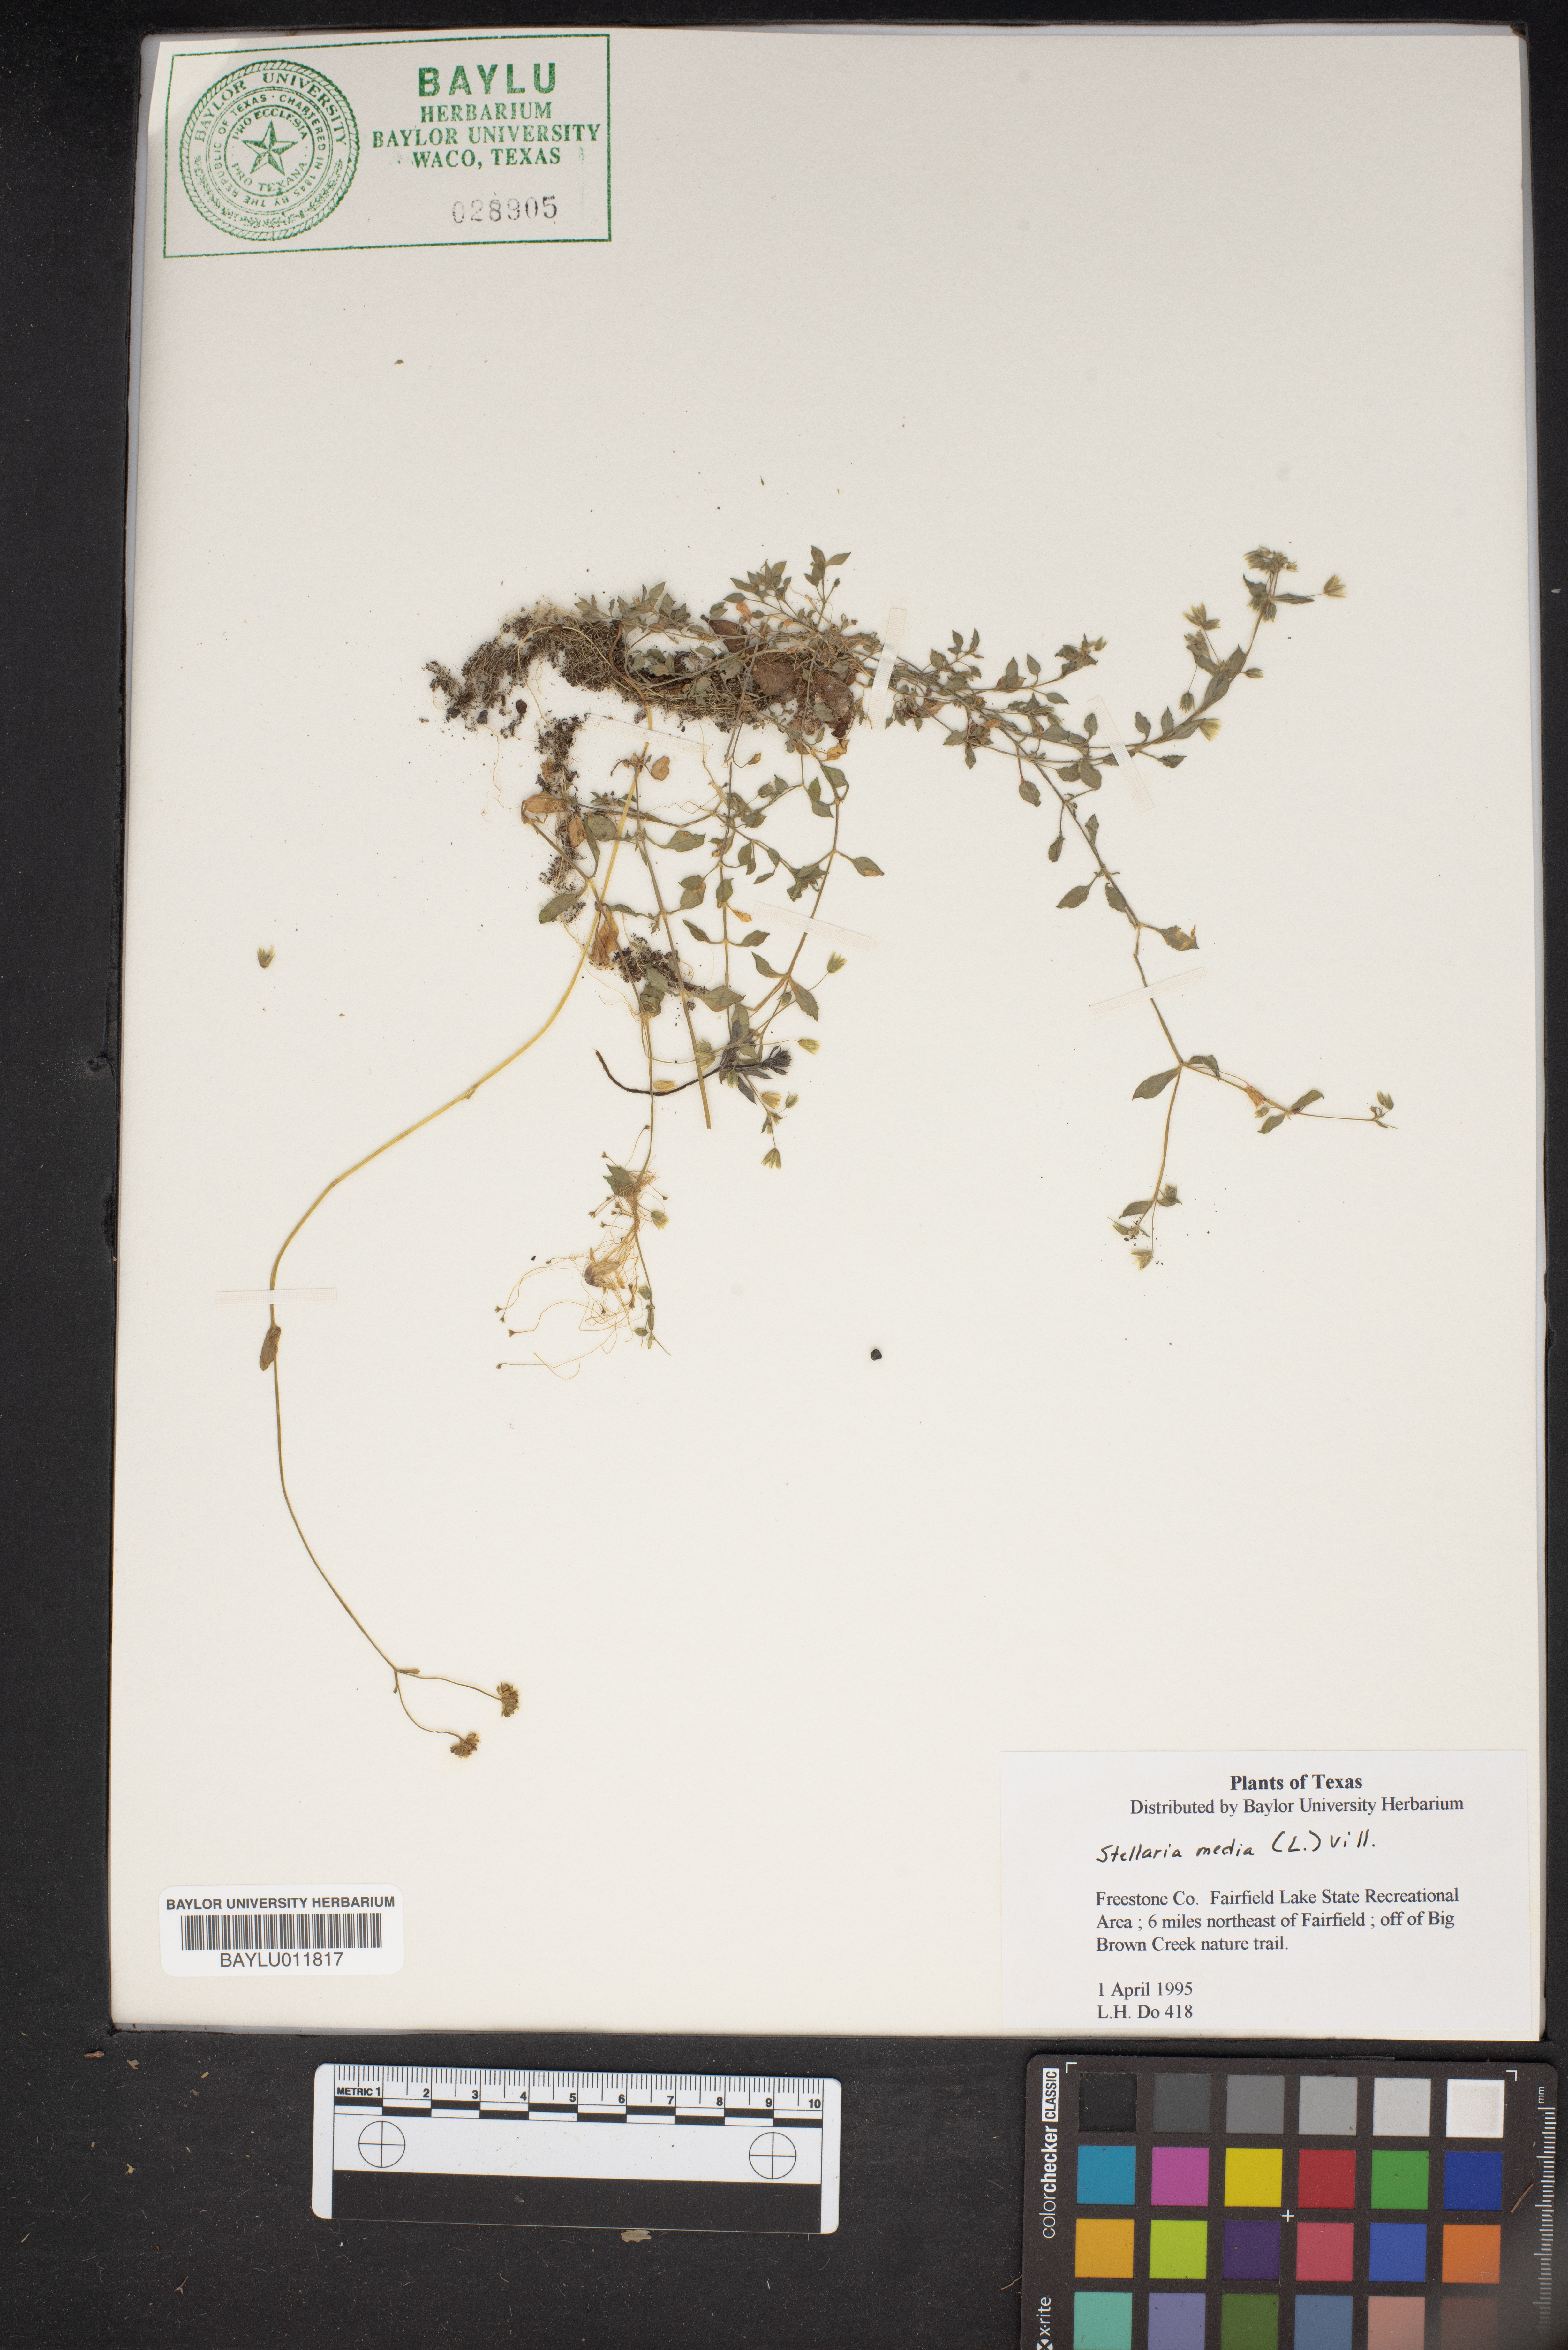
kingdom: Plantae
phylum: Tracheophyta
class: Magnoliopsida
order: Caryophyllales
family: Caryophyllaceae
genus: Stellaria
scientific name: Stellaria media
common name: Common chickweed
